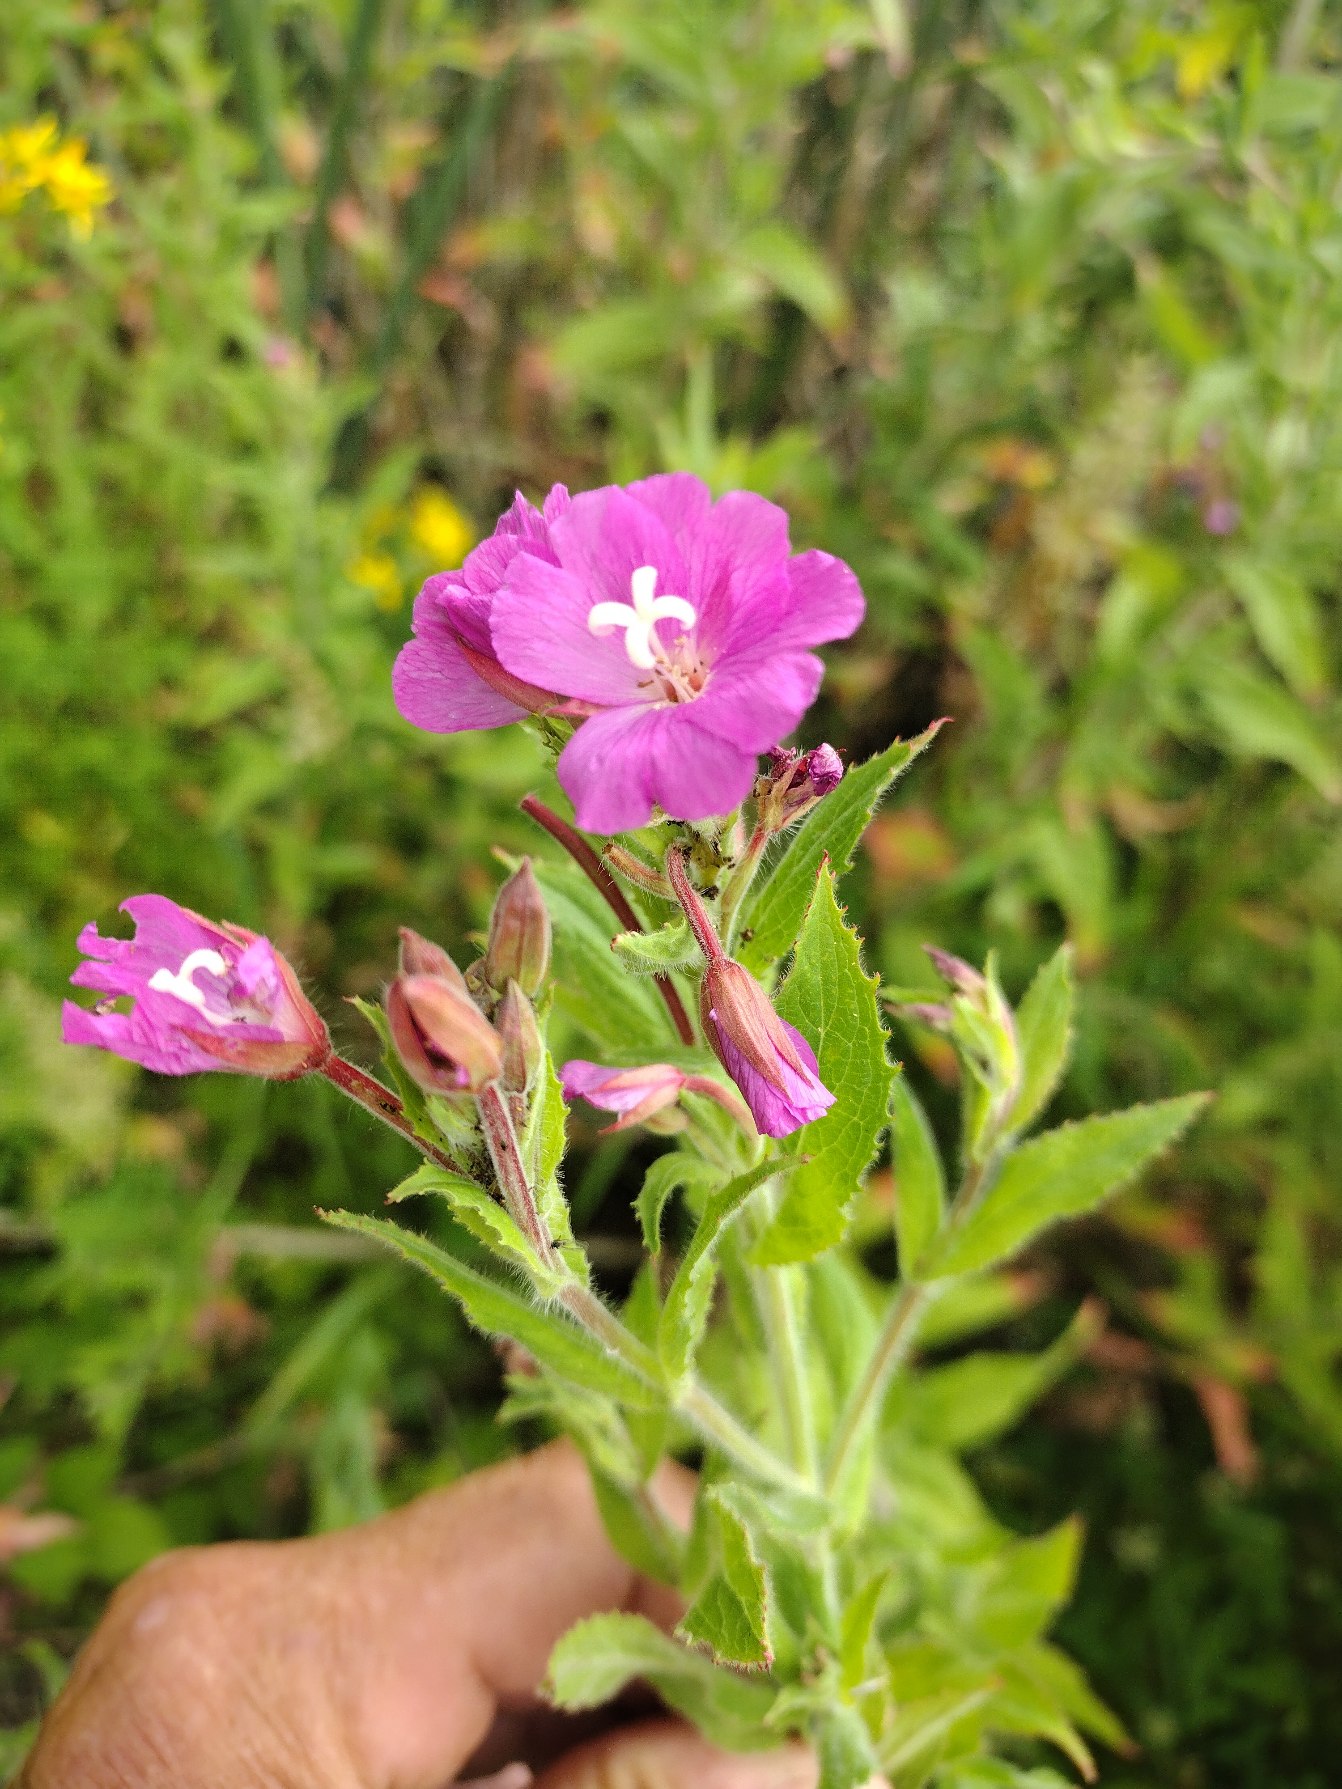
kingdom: Plantae
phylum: Tracheophyta
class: Magnoliopsida
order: Myrtales
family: Onagraceae
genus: Epilobium
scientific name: Epilobium hirsutum
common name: Lådden dueurt
